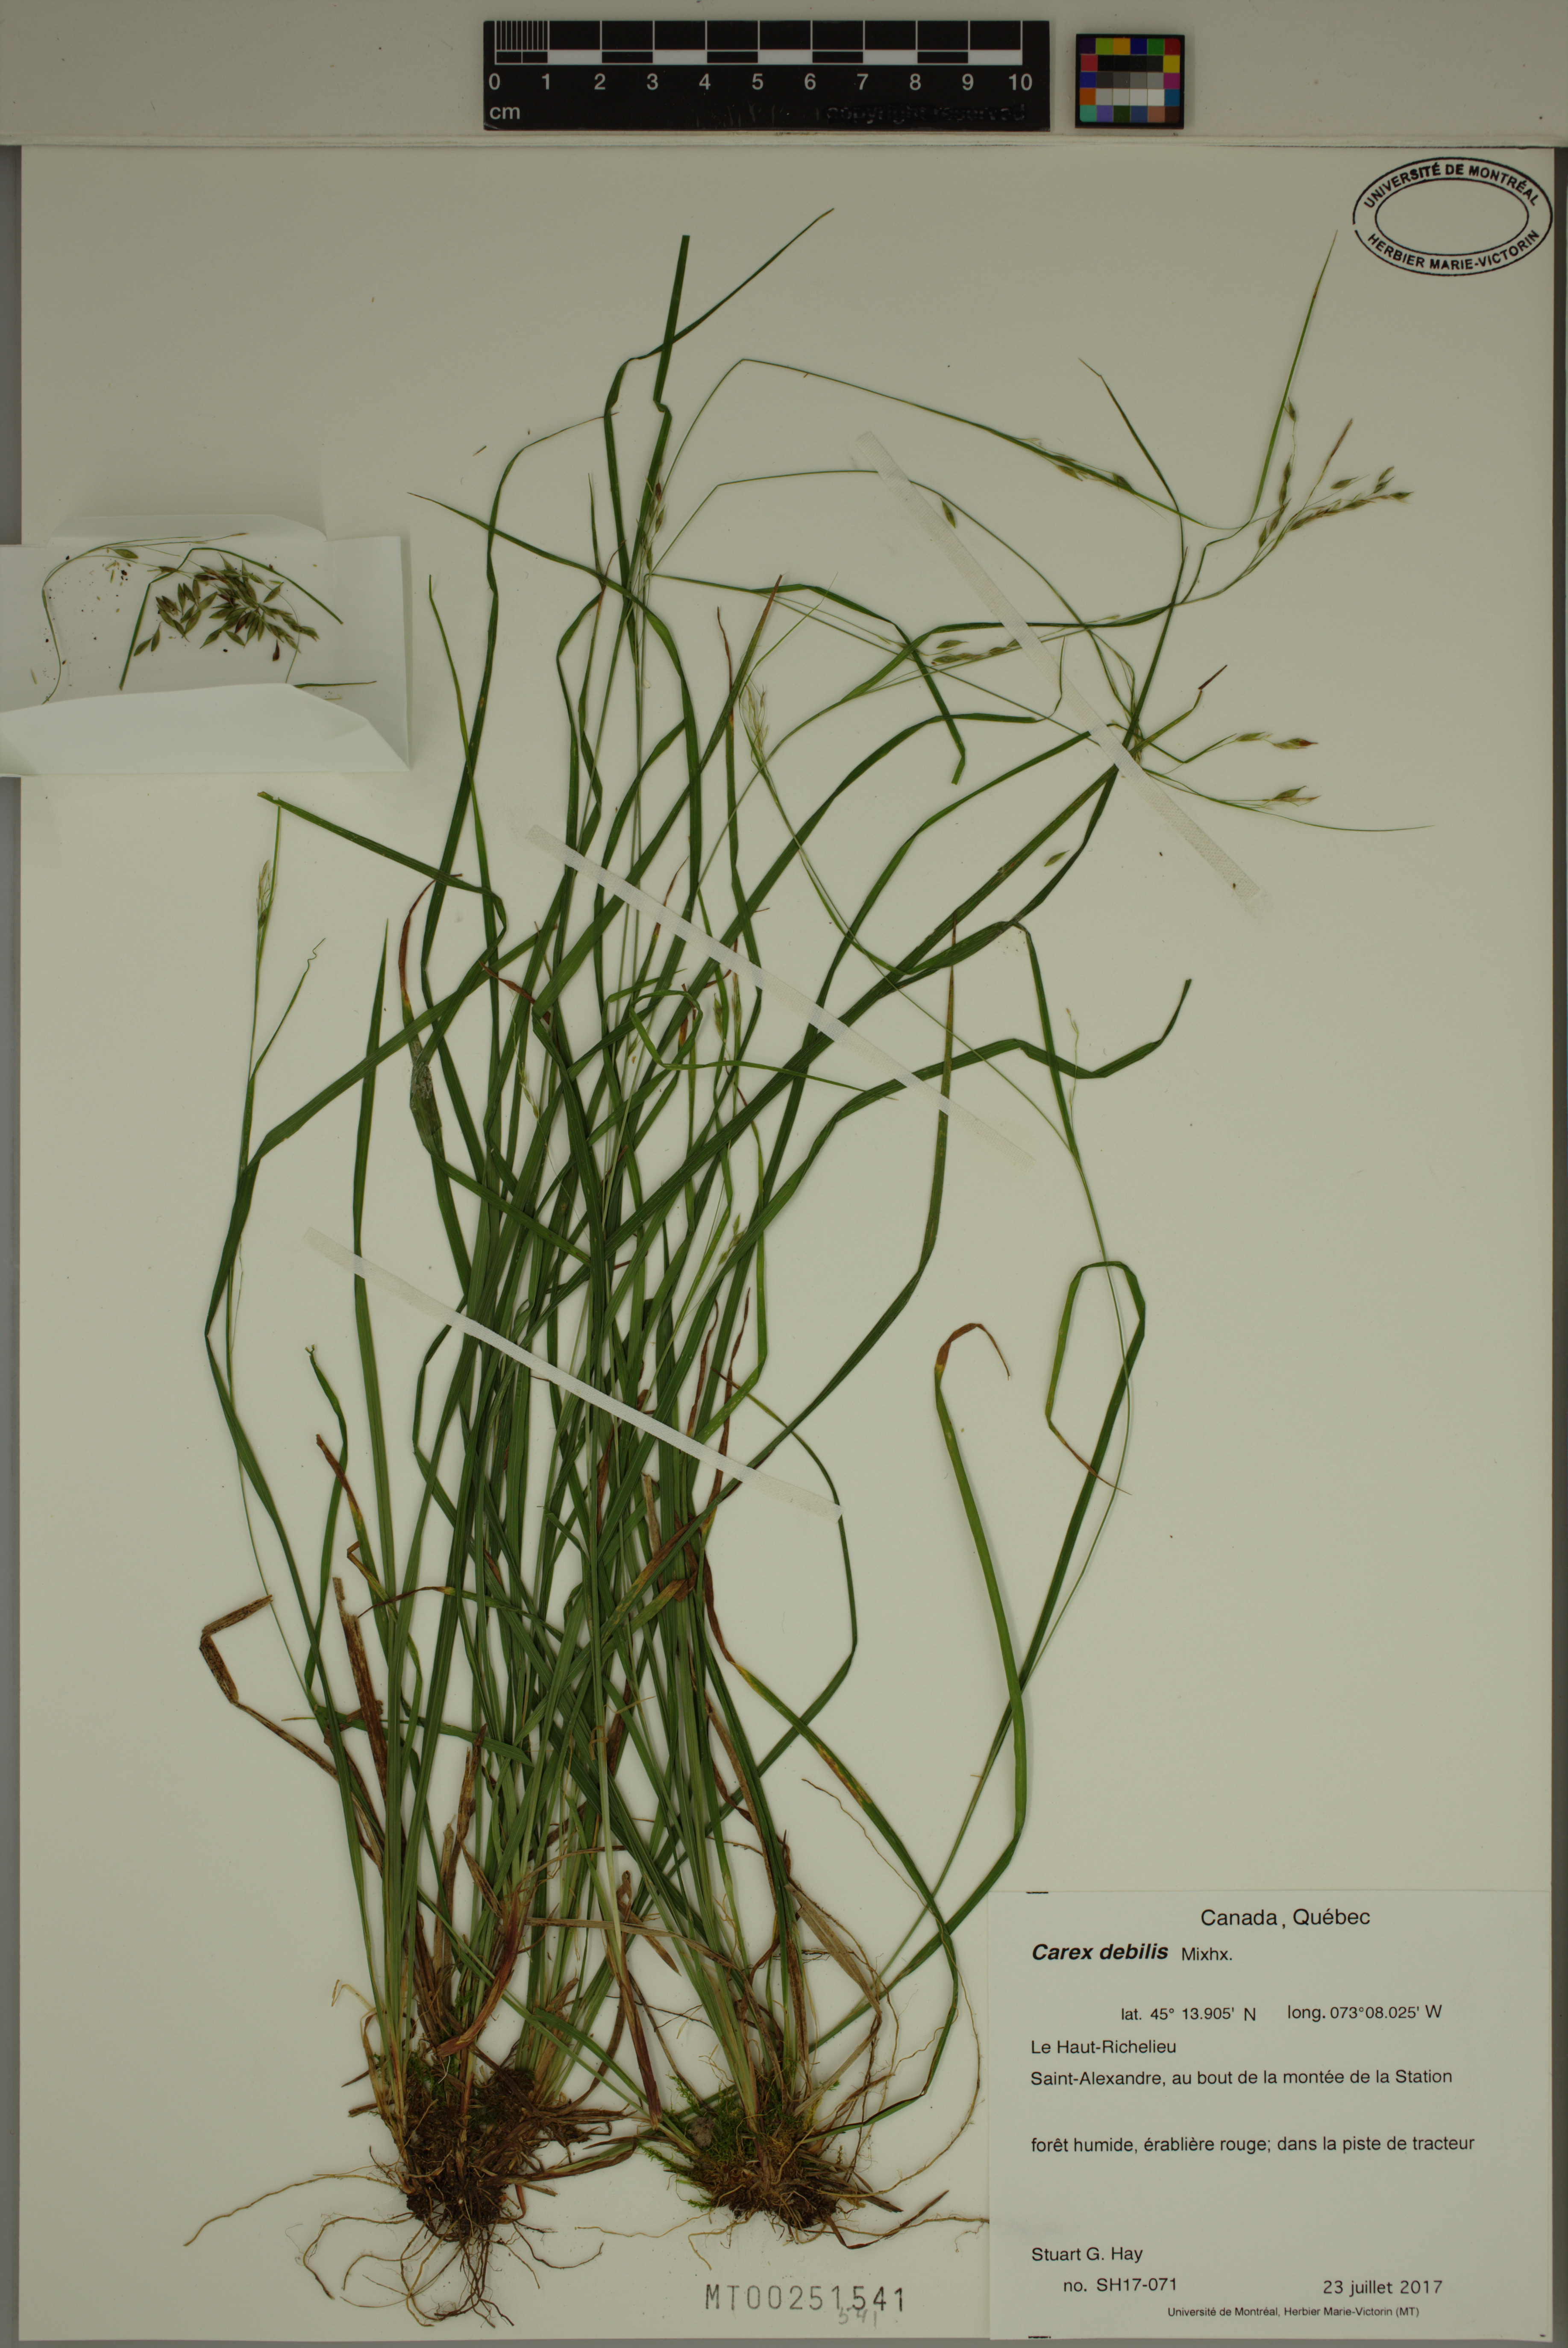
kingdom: Plantae
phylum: Tracheophyta
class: Liliopsida
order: Poales
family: Cyperaceae
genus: Carex
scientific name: Carex debilis
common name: White-edge sedge
